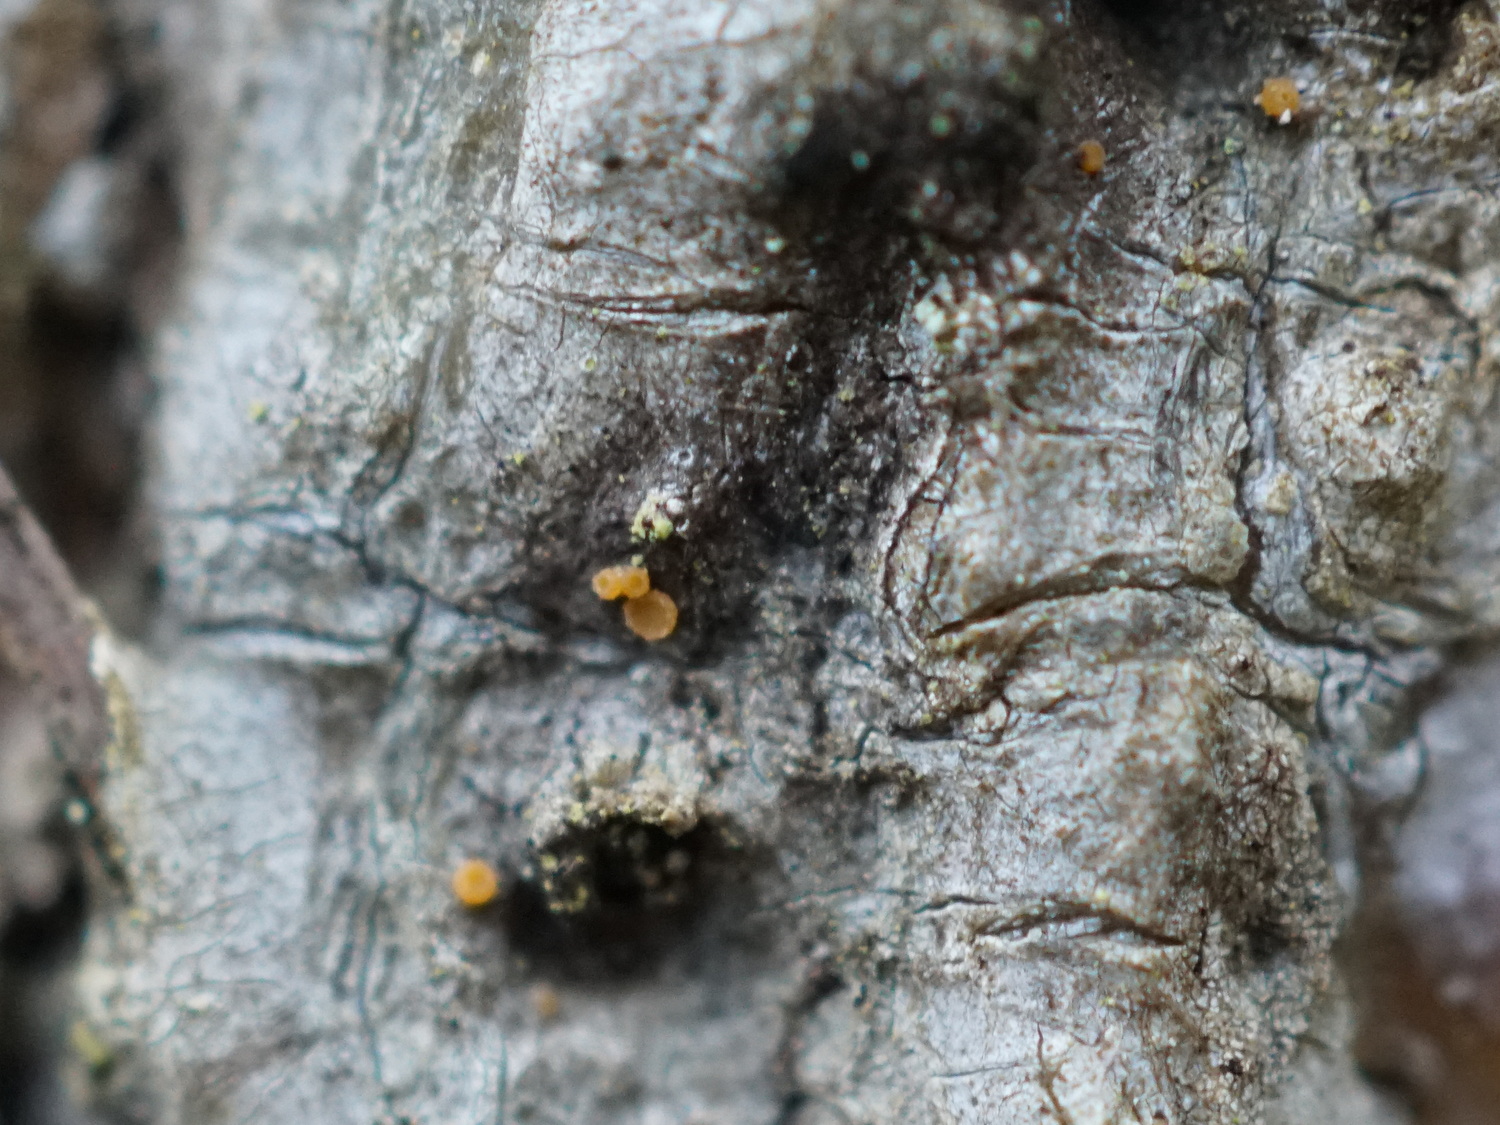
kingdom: Fungi
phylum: Ascomycota
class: Sareomycetes
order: Sareales
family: Sareaceae
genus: Sarea
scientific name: Sarea resinae
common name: orangegul harpiksskive
